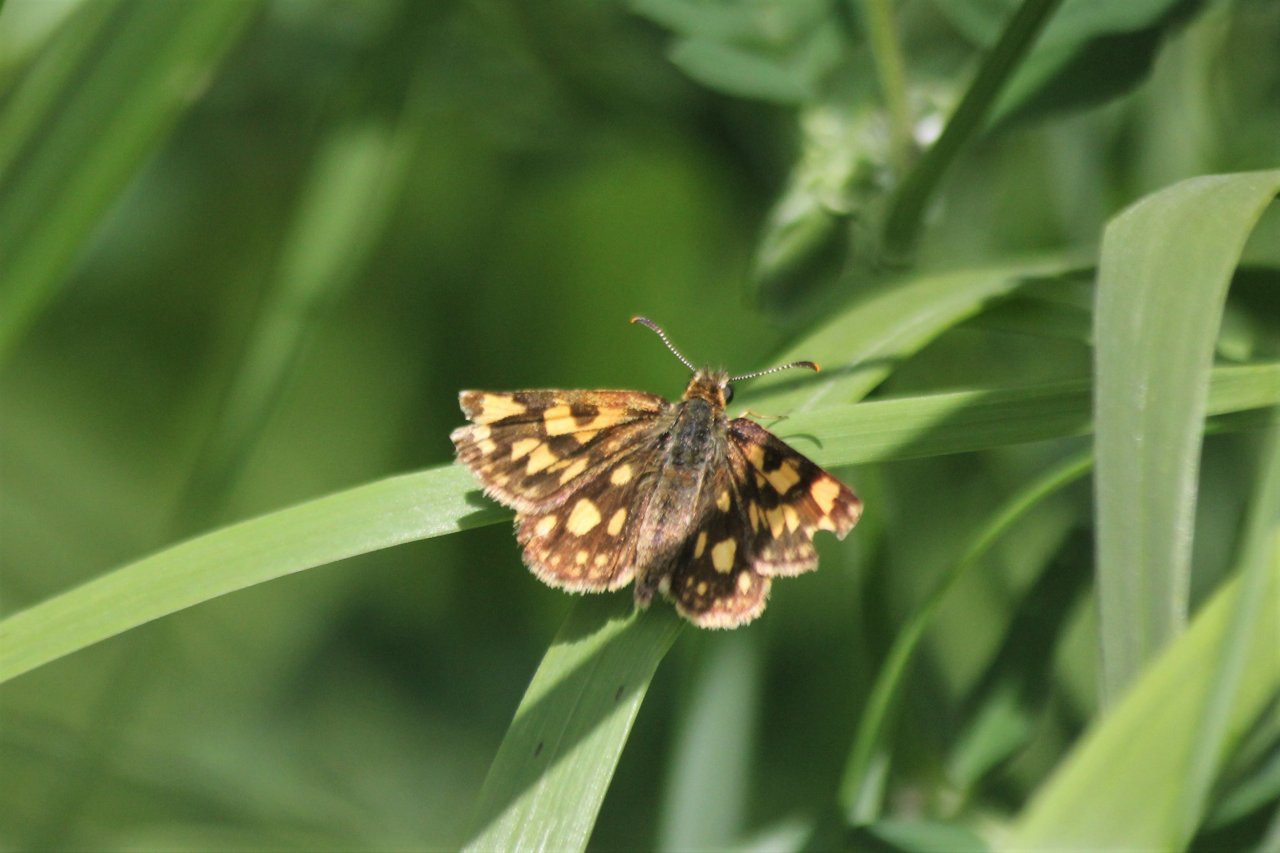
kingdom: Animalia
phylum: Arthropoda
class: Insecta
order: Lepidoptera
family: Hesperiidae
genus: Carterocephalus
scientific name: Carterocephalus palaemon
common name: Chequered Skipper
